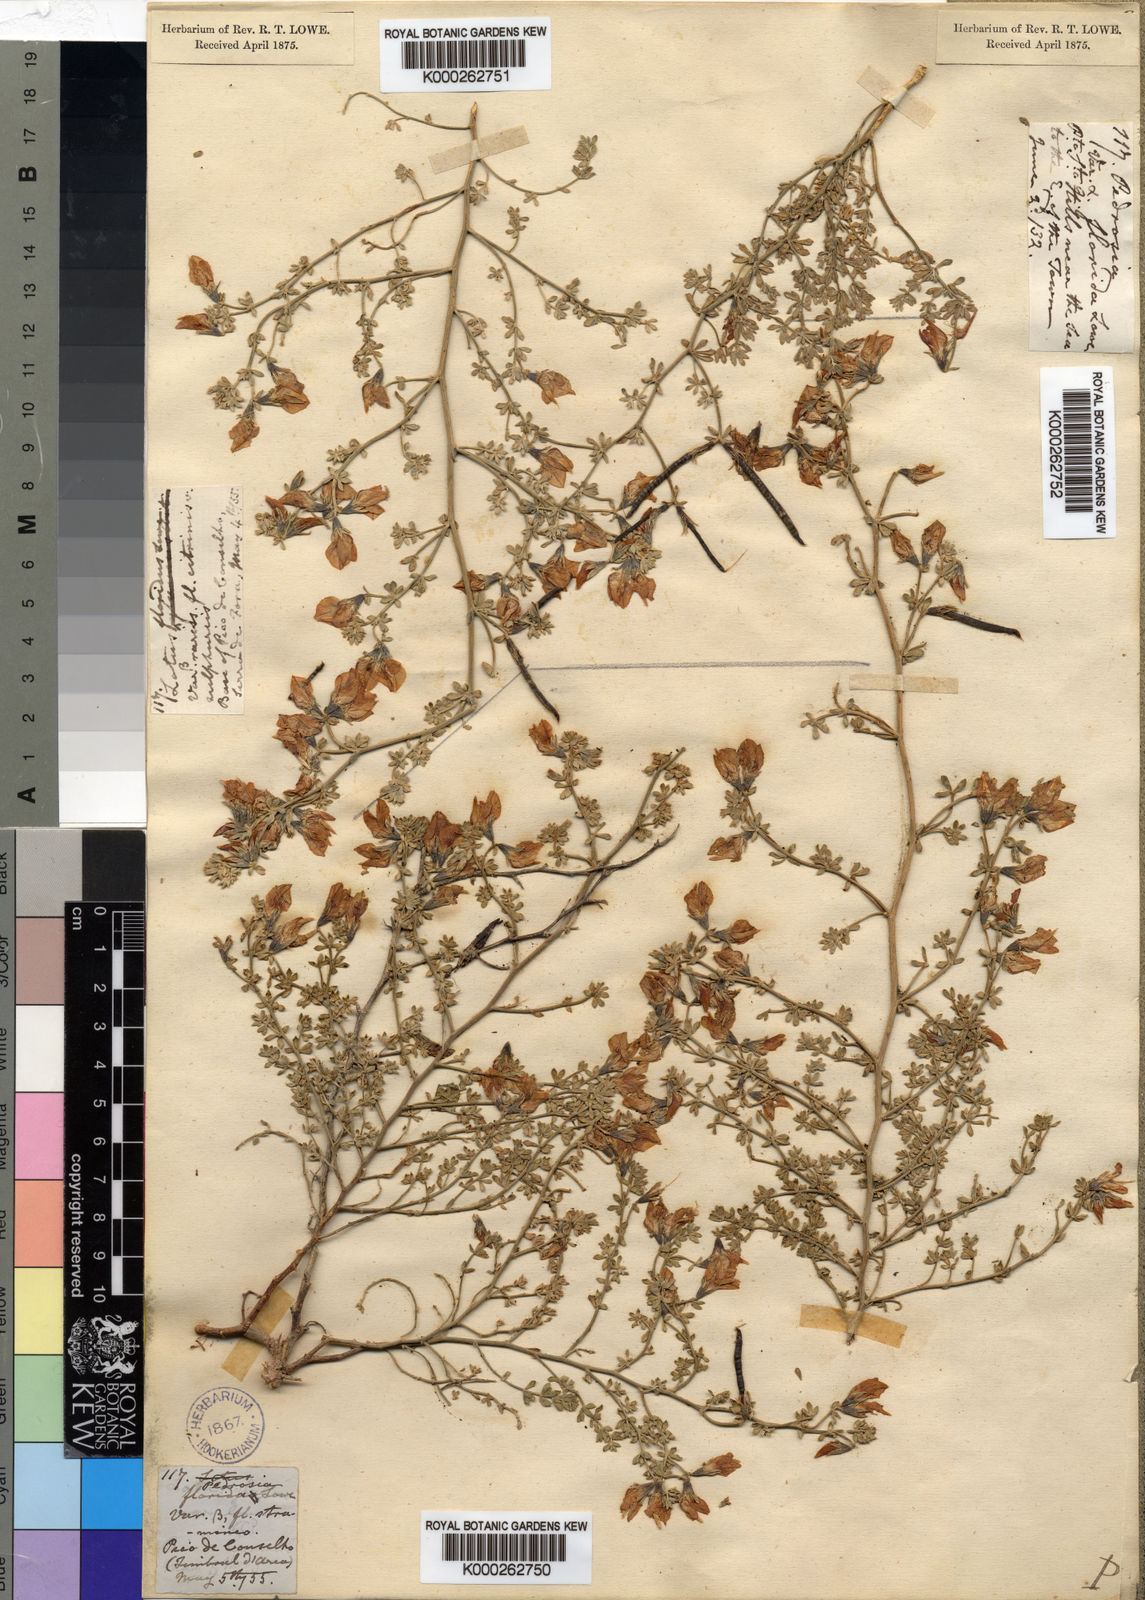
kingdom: Plantae
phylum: Tracheophyta
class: Magnoliopsida
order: Fabales
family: Fabaceae
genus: Lotus
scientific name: Lotus glaucus
